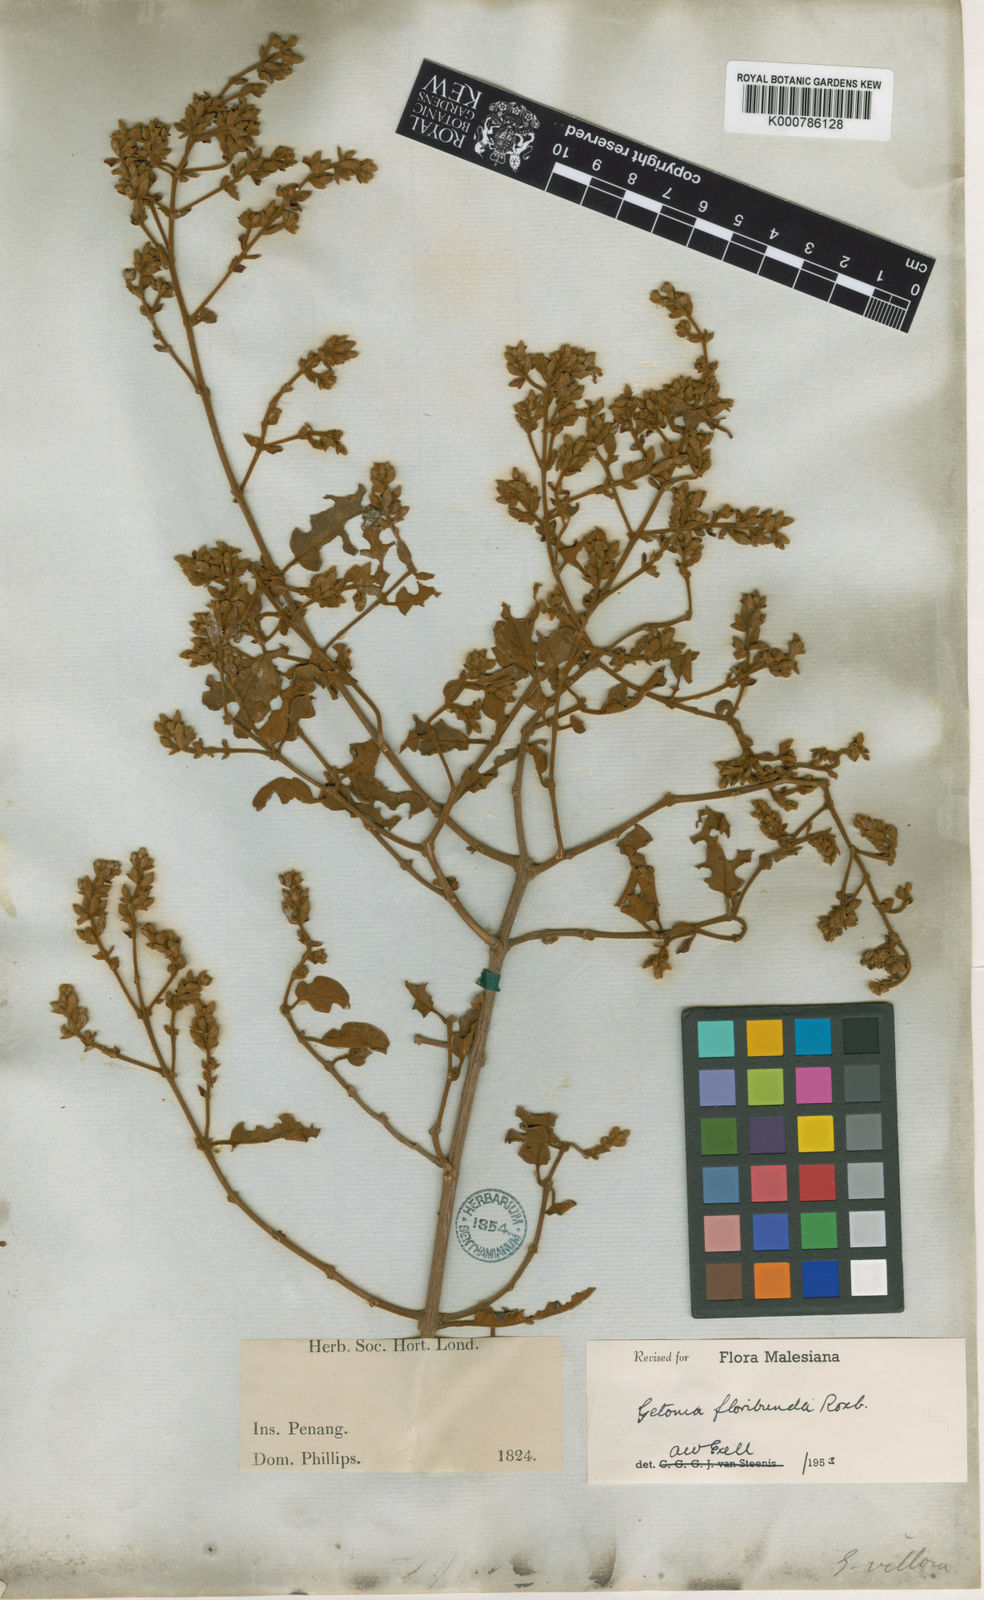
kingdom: Plantae
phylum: Tracheophyta
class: Magnoliopsida
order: Myrtales
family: Combretaceae
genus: Getonia
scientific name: Getonia floribunda
